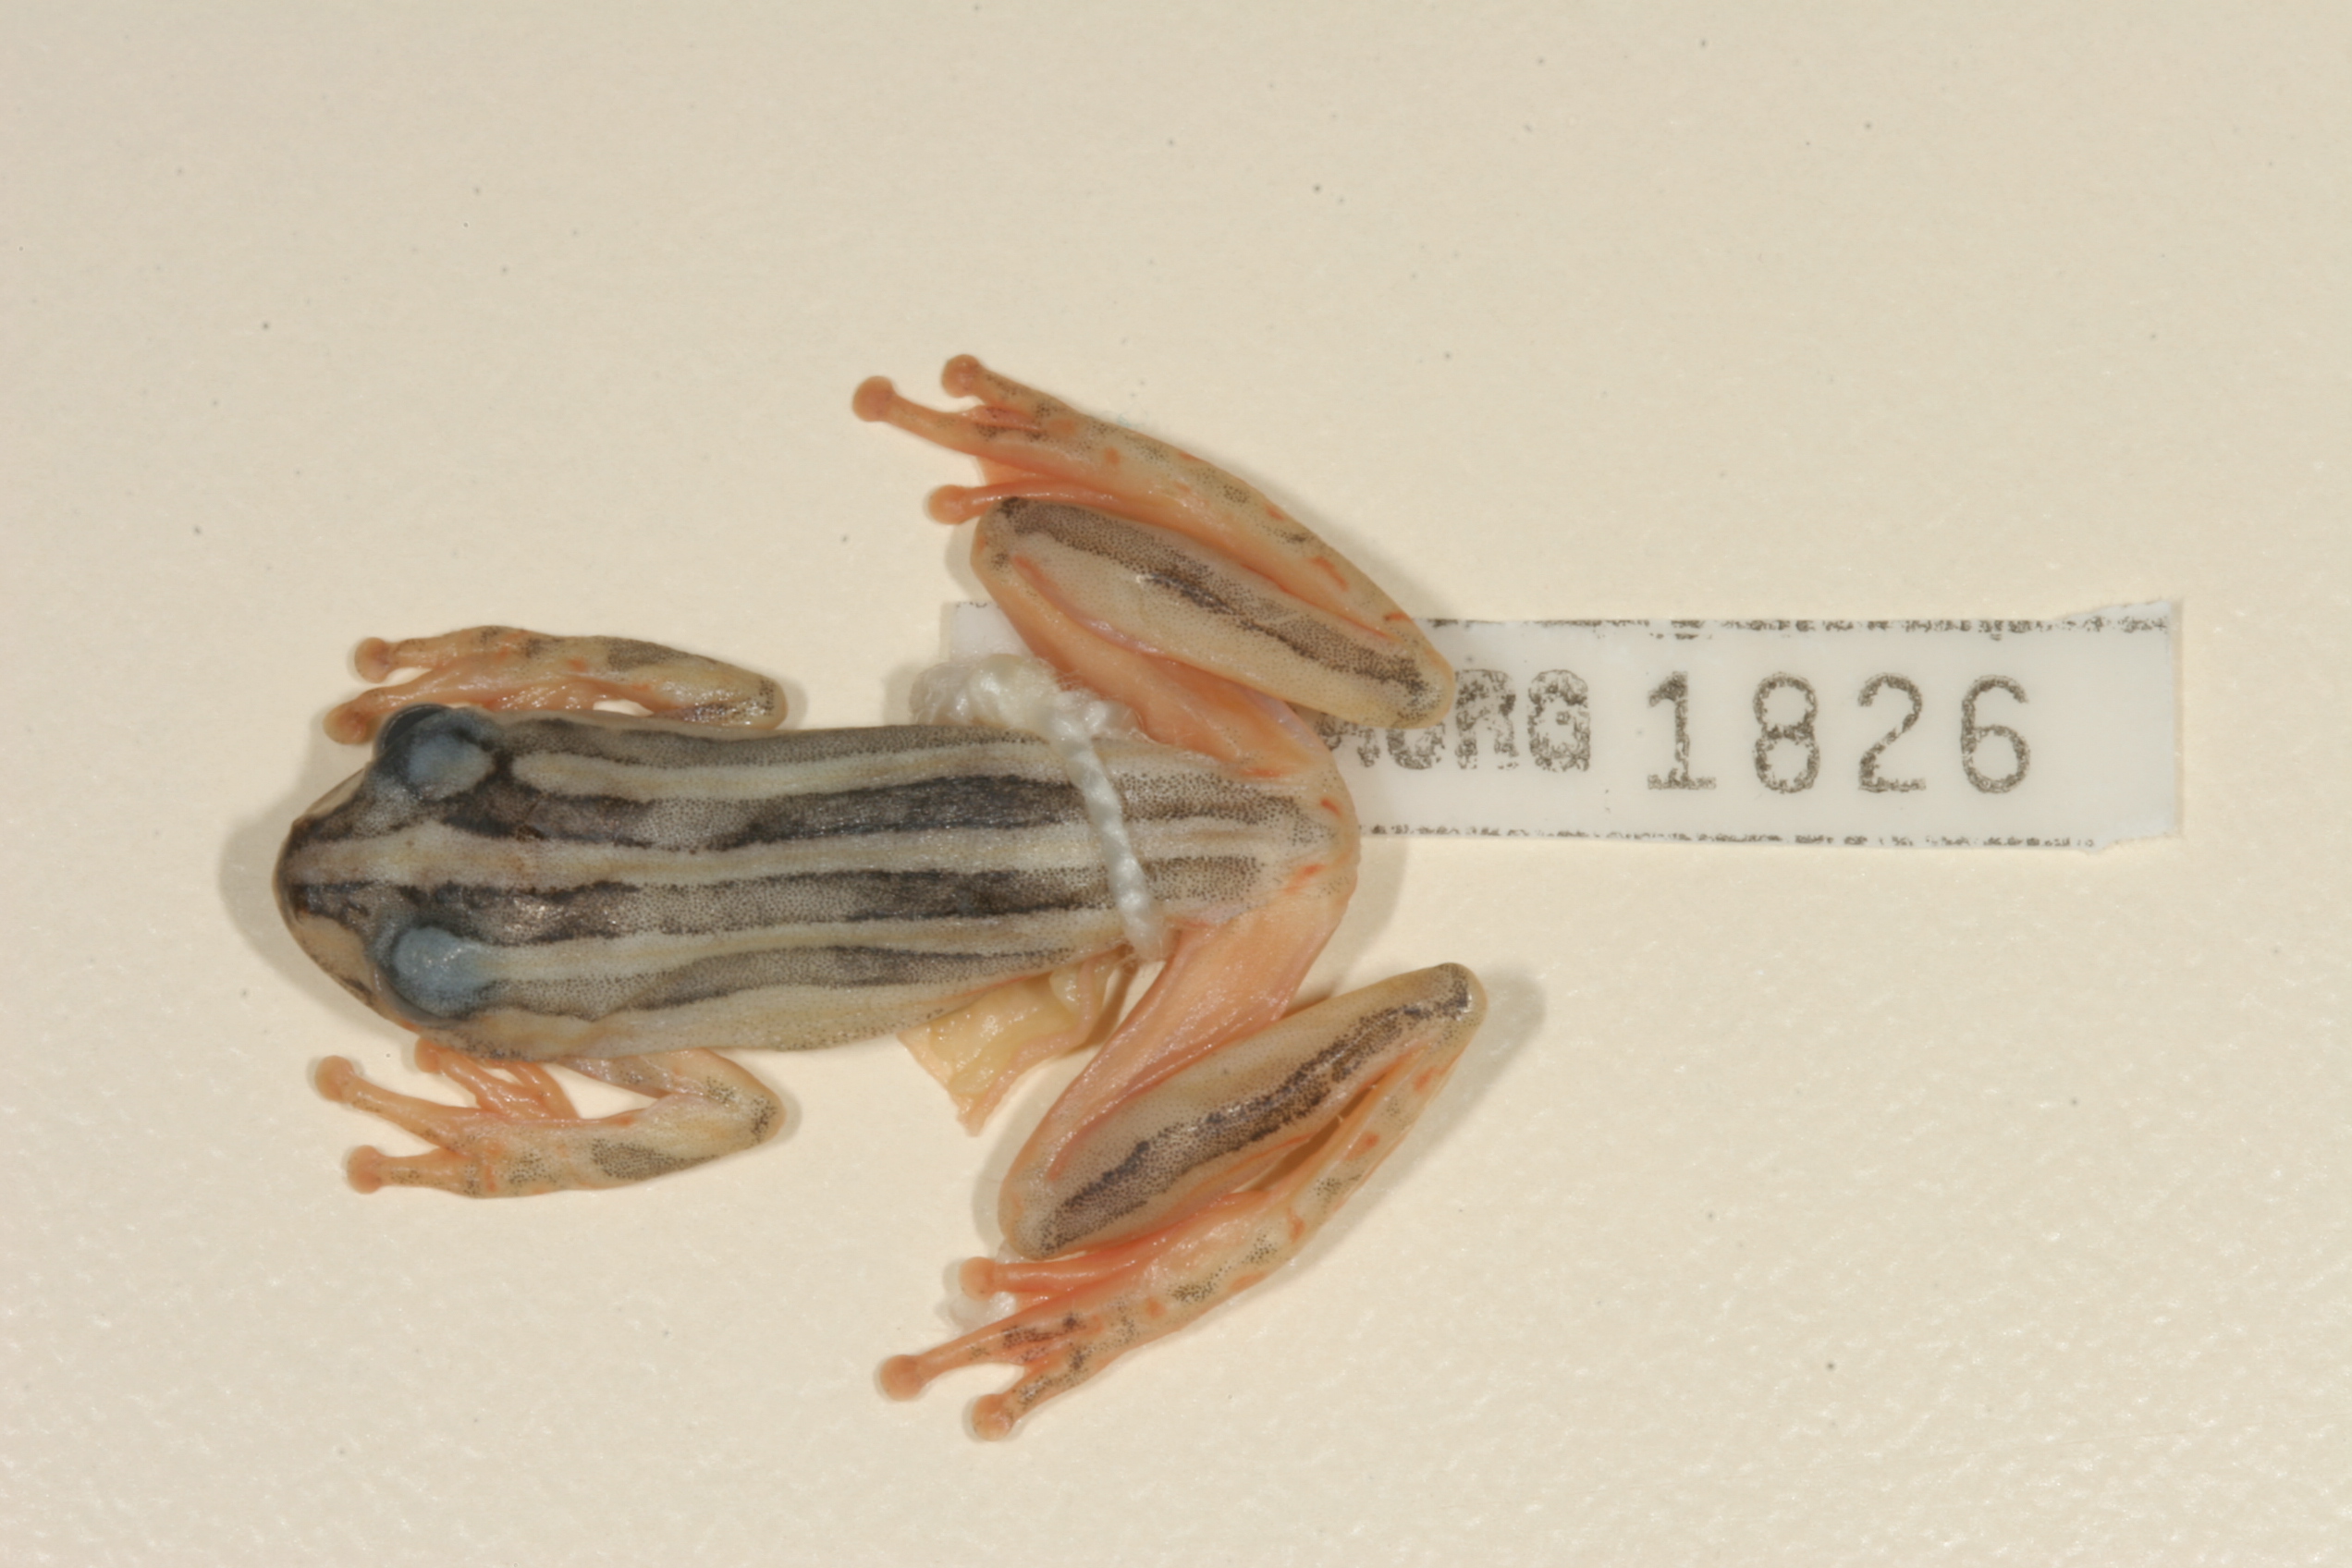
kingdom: Animalia
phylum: Chordata
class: Amphibia
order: Anura
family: Hyperoliidae
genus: Hyperolius
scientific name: Hyperolius marmoratus
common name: Painted reed frog
